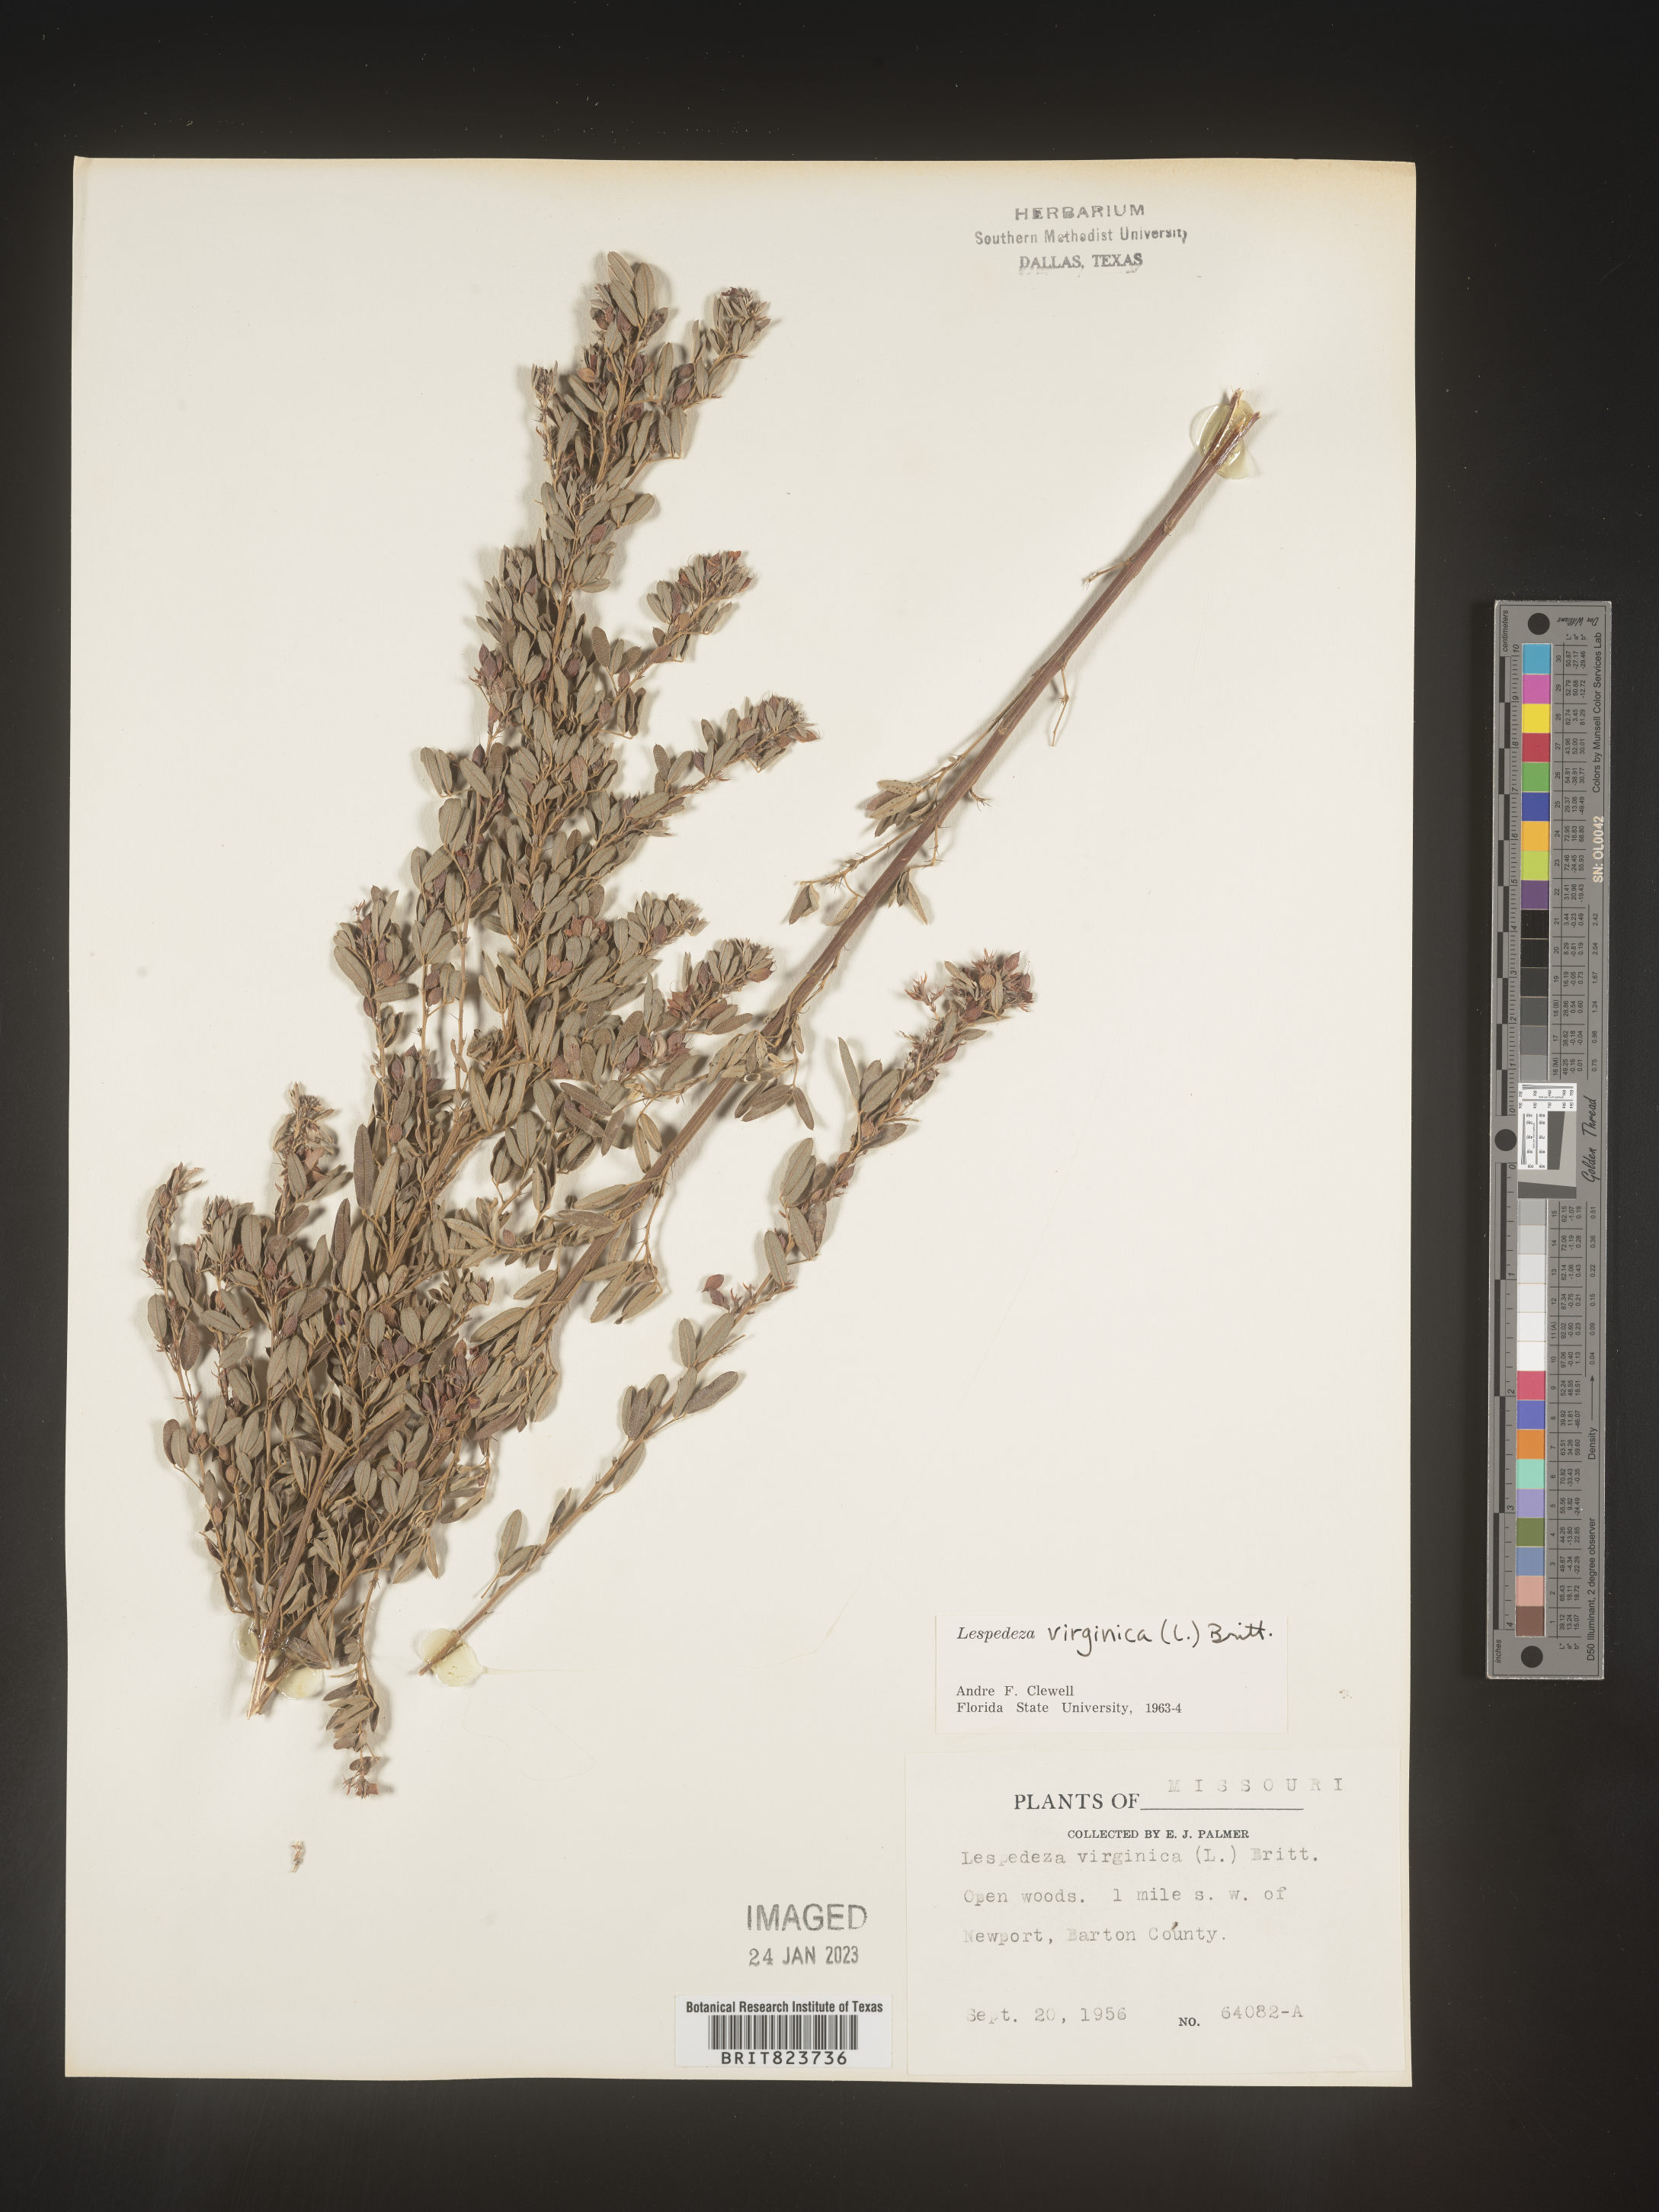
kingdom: Plantae
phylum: Tracheophyta
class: Magnoliopsida
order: Fabales
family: Fabaceae
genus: Lespedeza
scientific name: Lespedeza virginica
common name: Slender bush-clover
